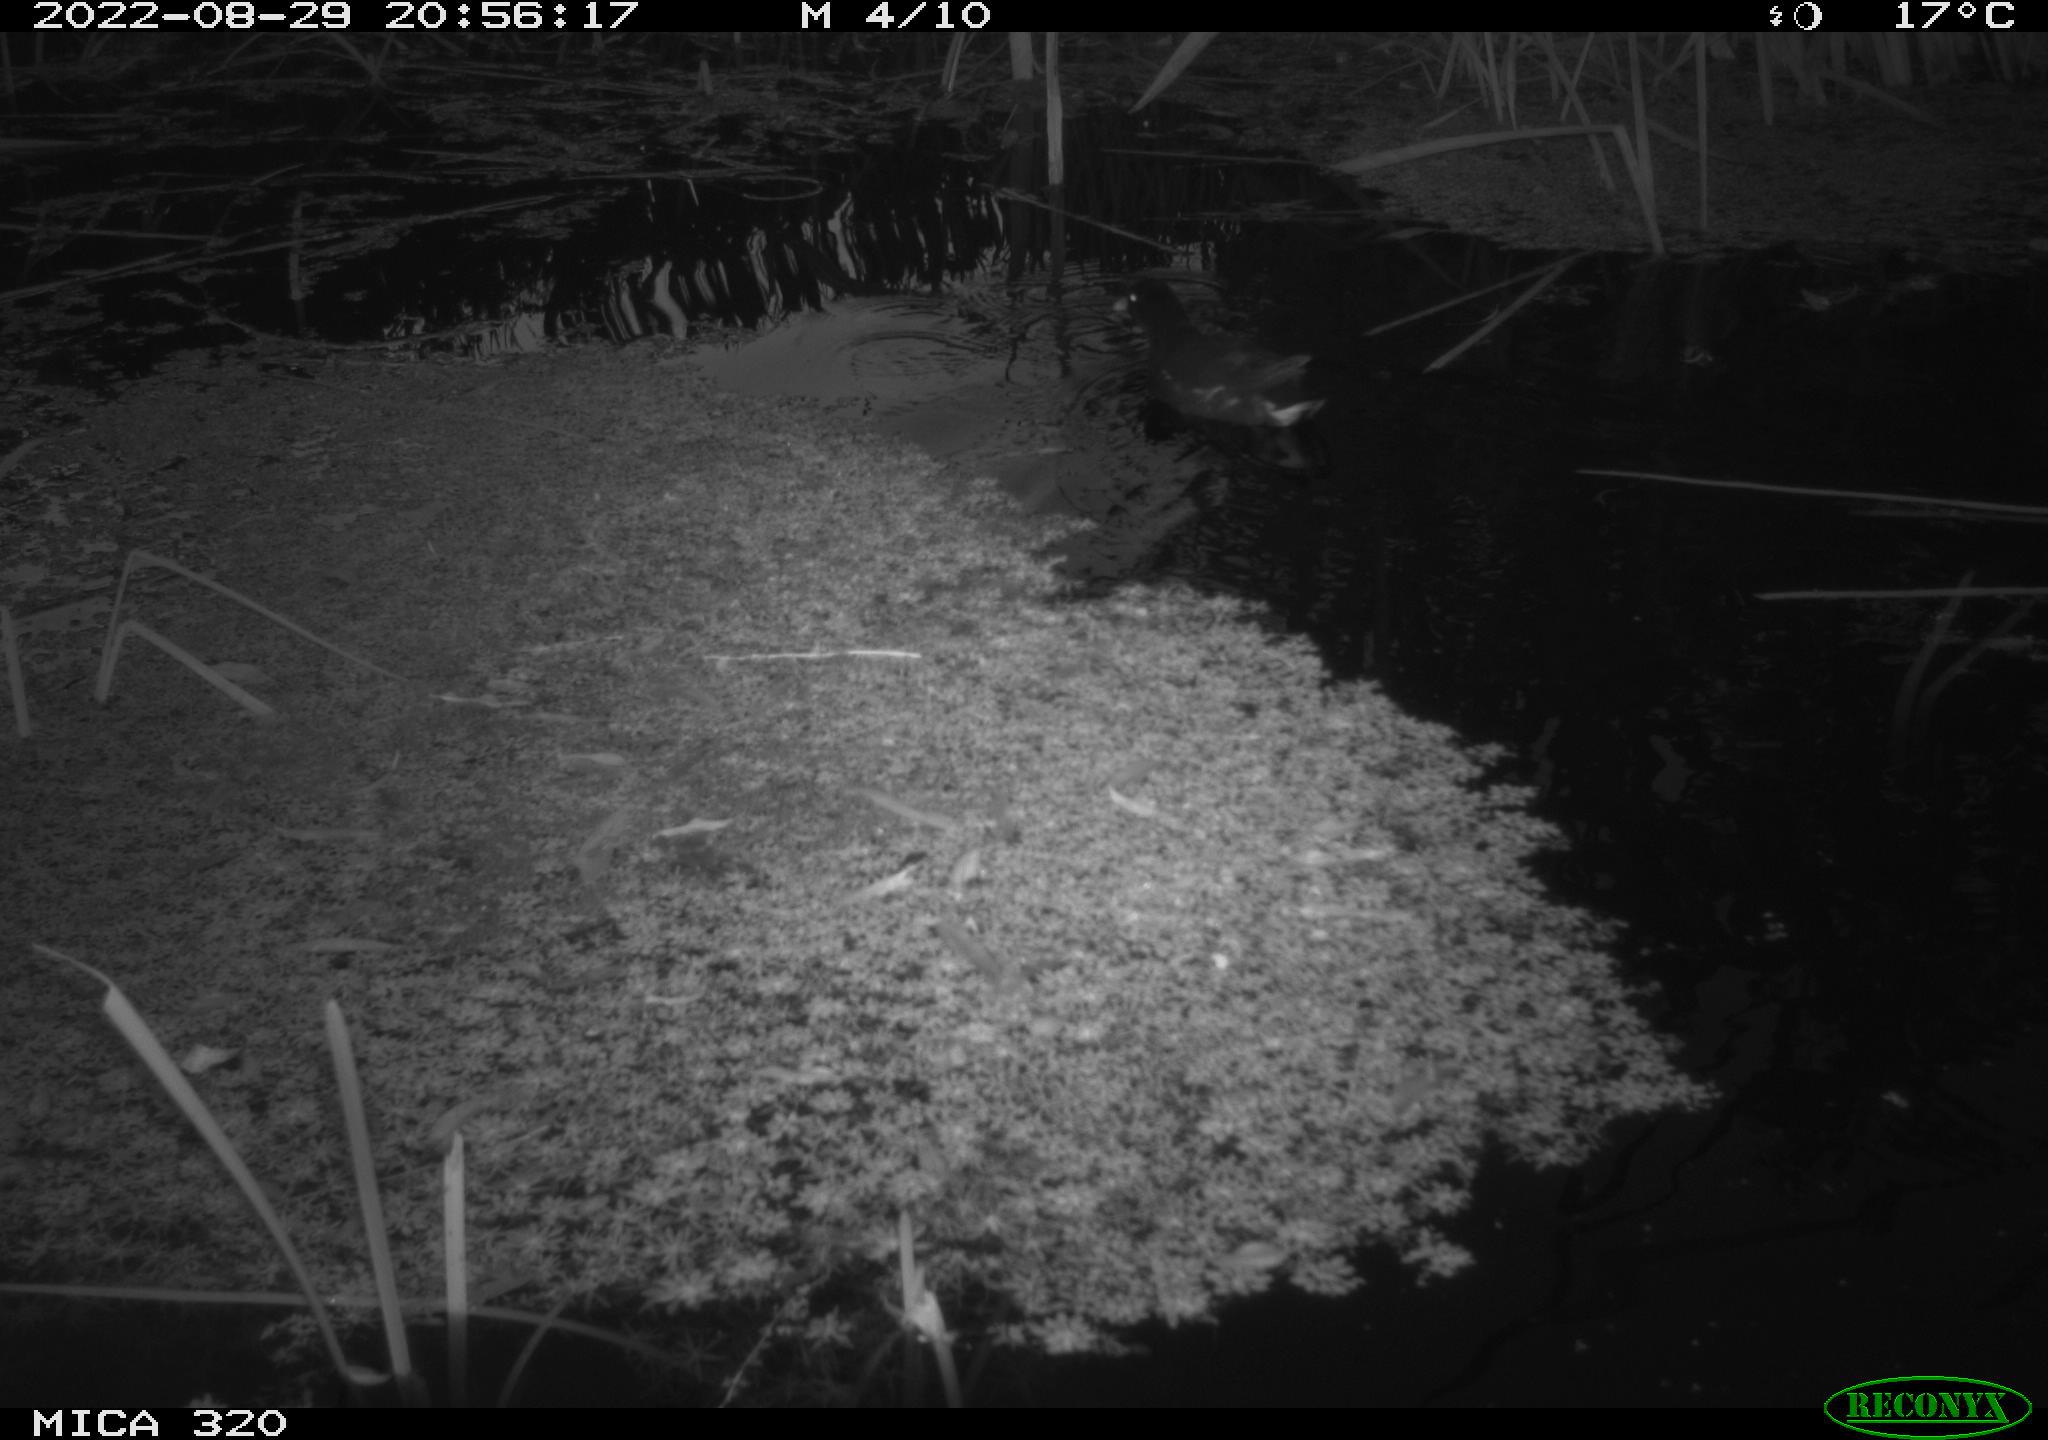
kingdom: Animalia
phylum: Chordata
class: Aves
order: Gruiformes
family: Rallidae
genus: Gallinula
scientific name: Gallinula chloropus
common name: Common moorhen
